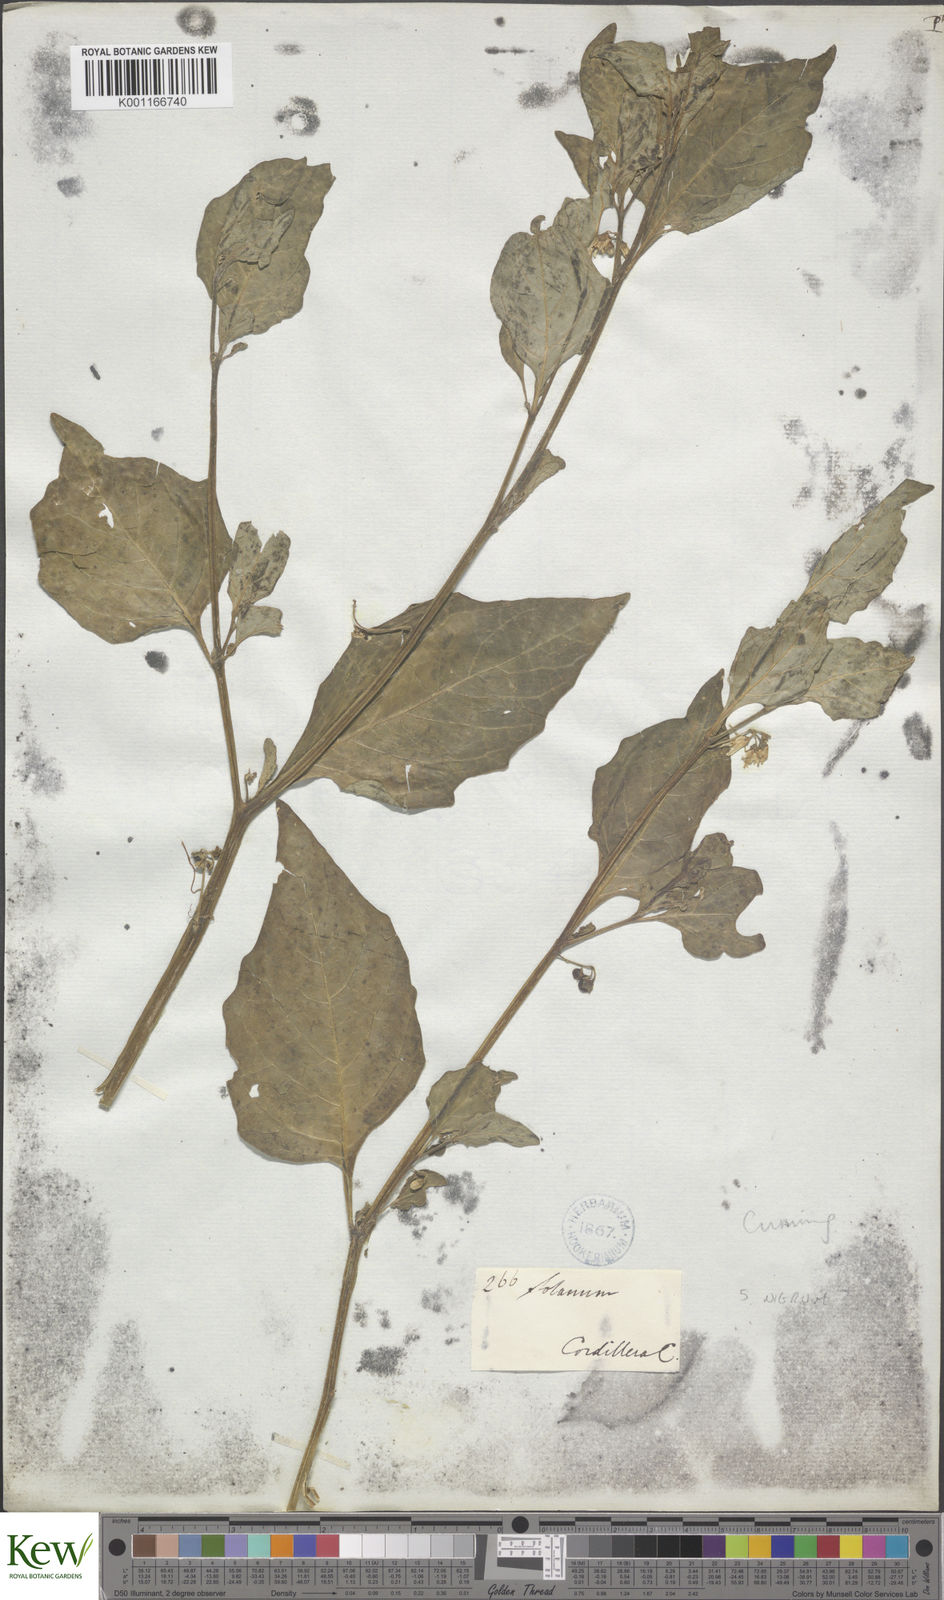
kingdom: Plantae
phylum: Tracheophyta
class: Magnoliopsida
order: Solanales
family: Solanaceae
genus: Solanum
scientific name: Solanum
